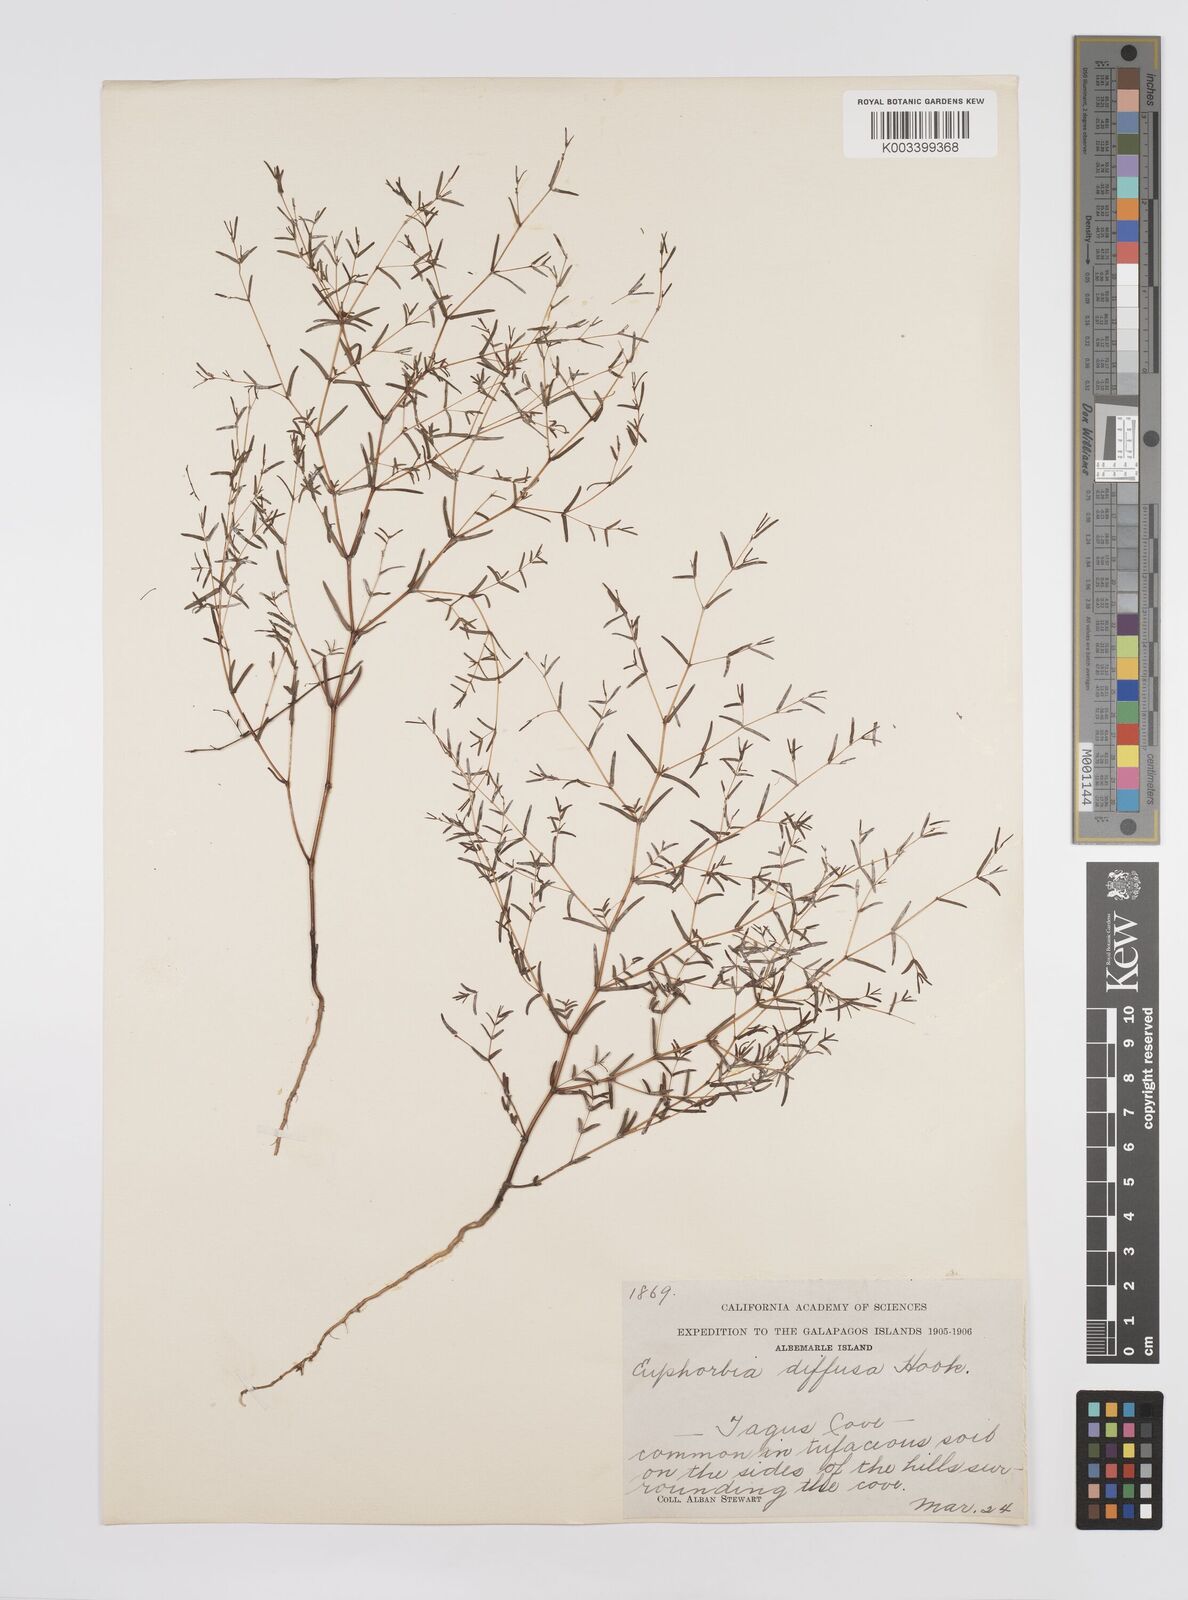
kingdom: Plantae
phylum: Tracheophyta
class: Magnoliopsida
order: Malpighiales
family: Euphorbiaceae
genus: Euphorbia
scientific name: Euphorbia punctulata
